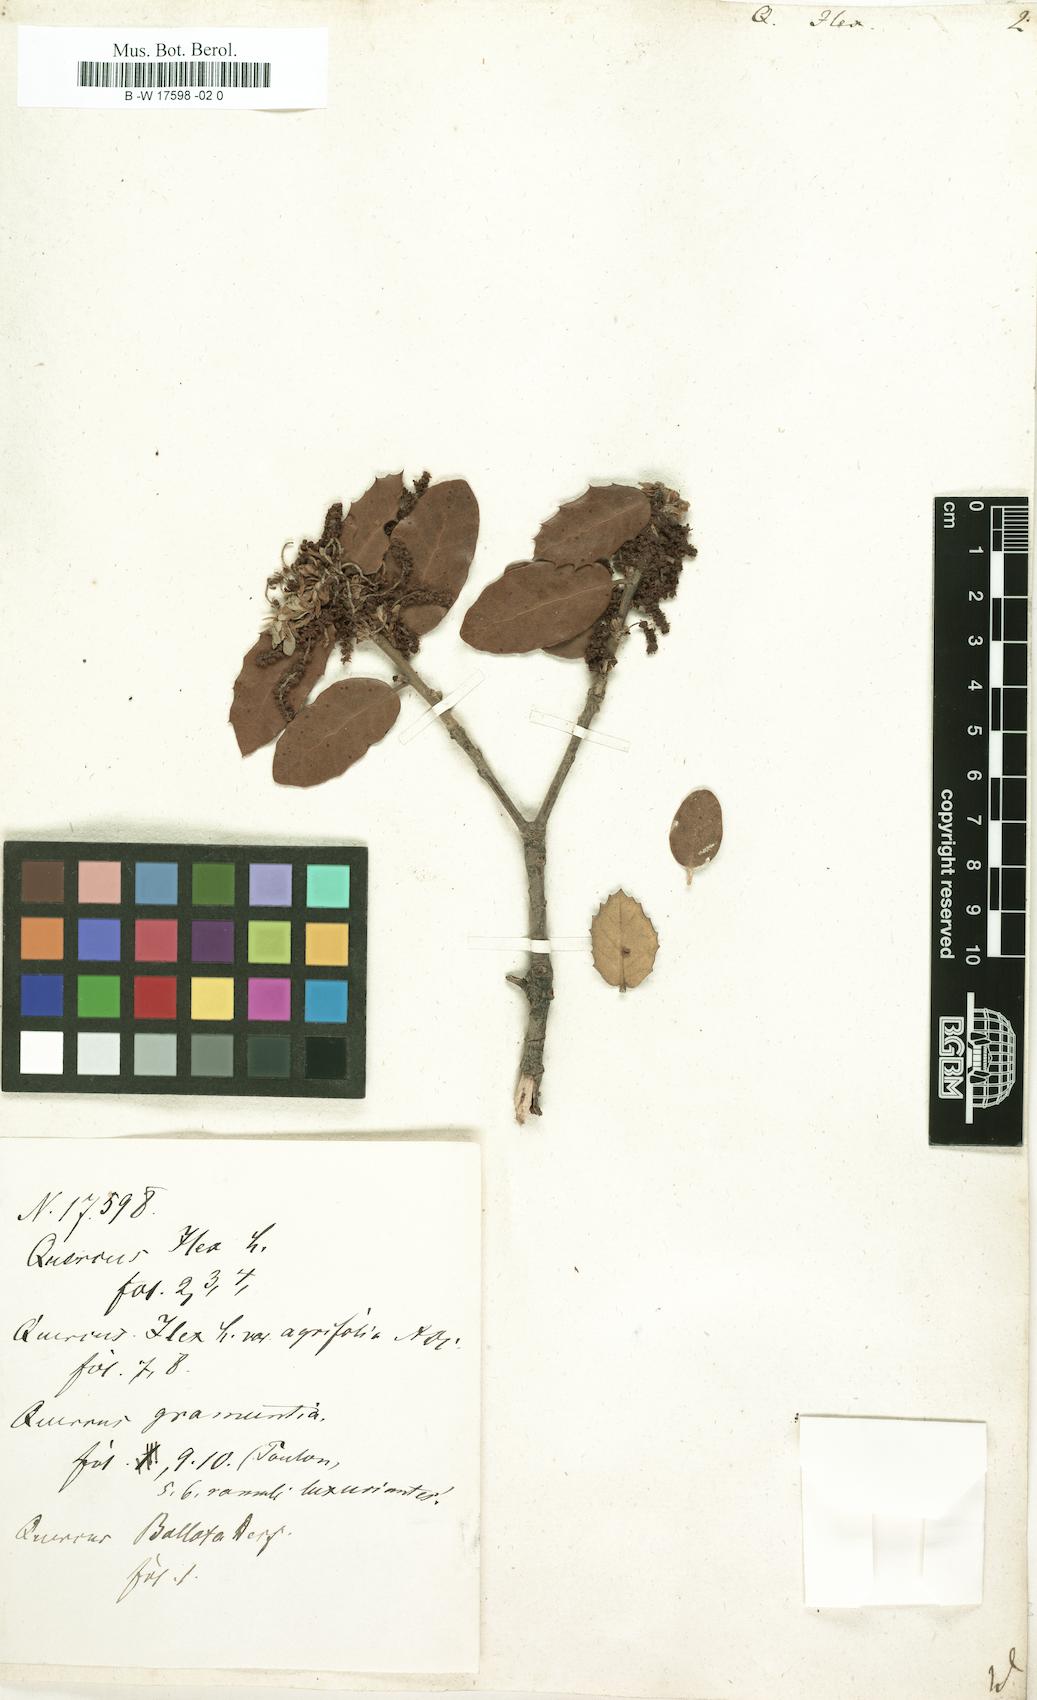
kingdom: Plantae
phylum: Tracheophyta
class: Magnoliopsida
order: Fagales
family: Fagaceae
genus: Quercus
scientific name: Quercus ilex
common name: Evergreen oak
